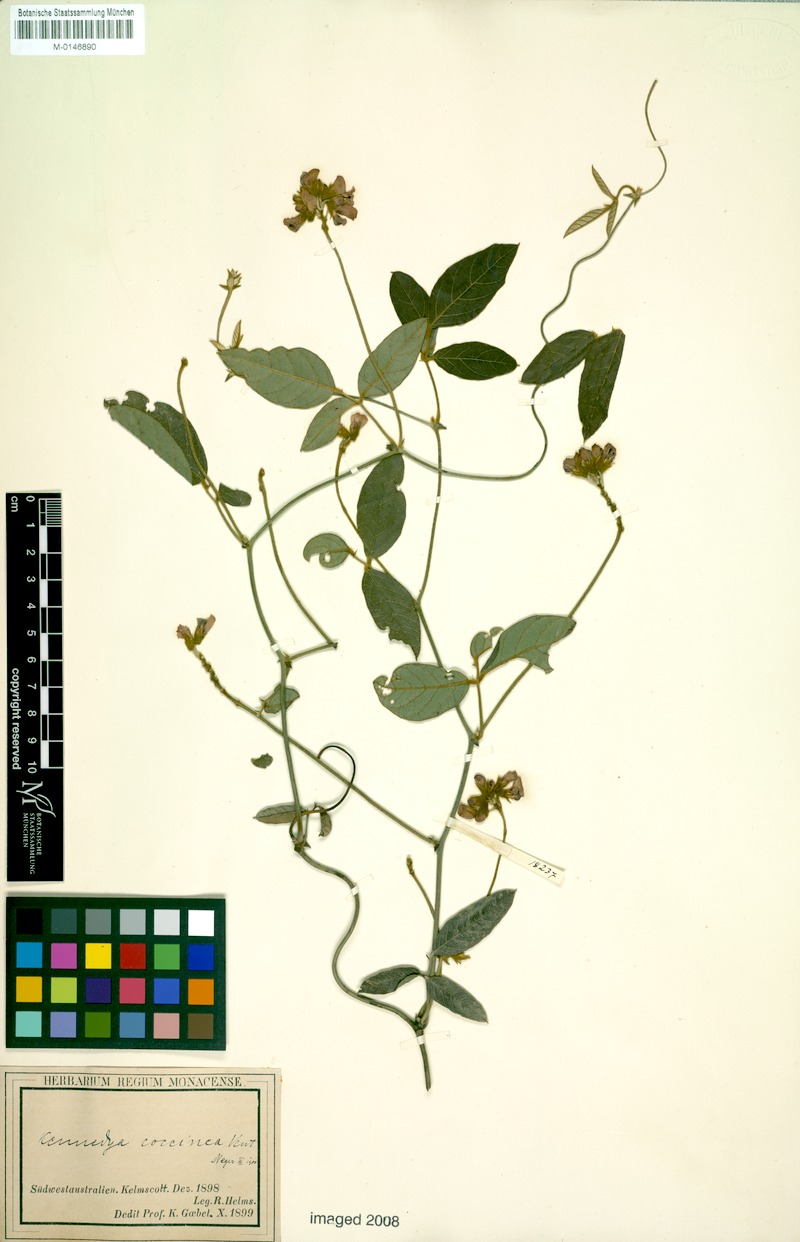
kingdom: Plantae
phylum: Tracheophyta
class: Magnoliopsida
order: Fabales
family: Fabaceae
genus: Kennedia
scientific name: Kennedia coccinea
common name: Coralvine
